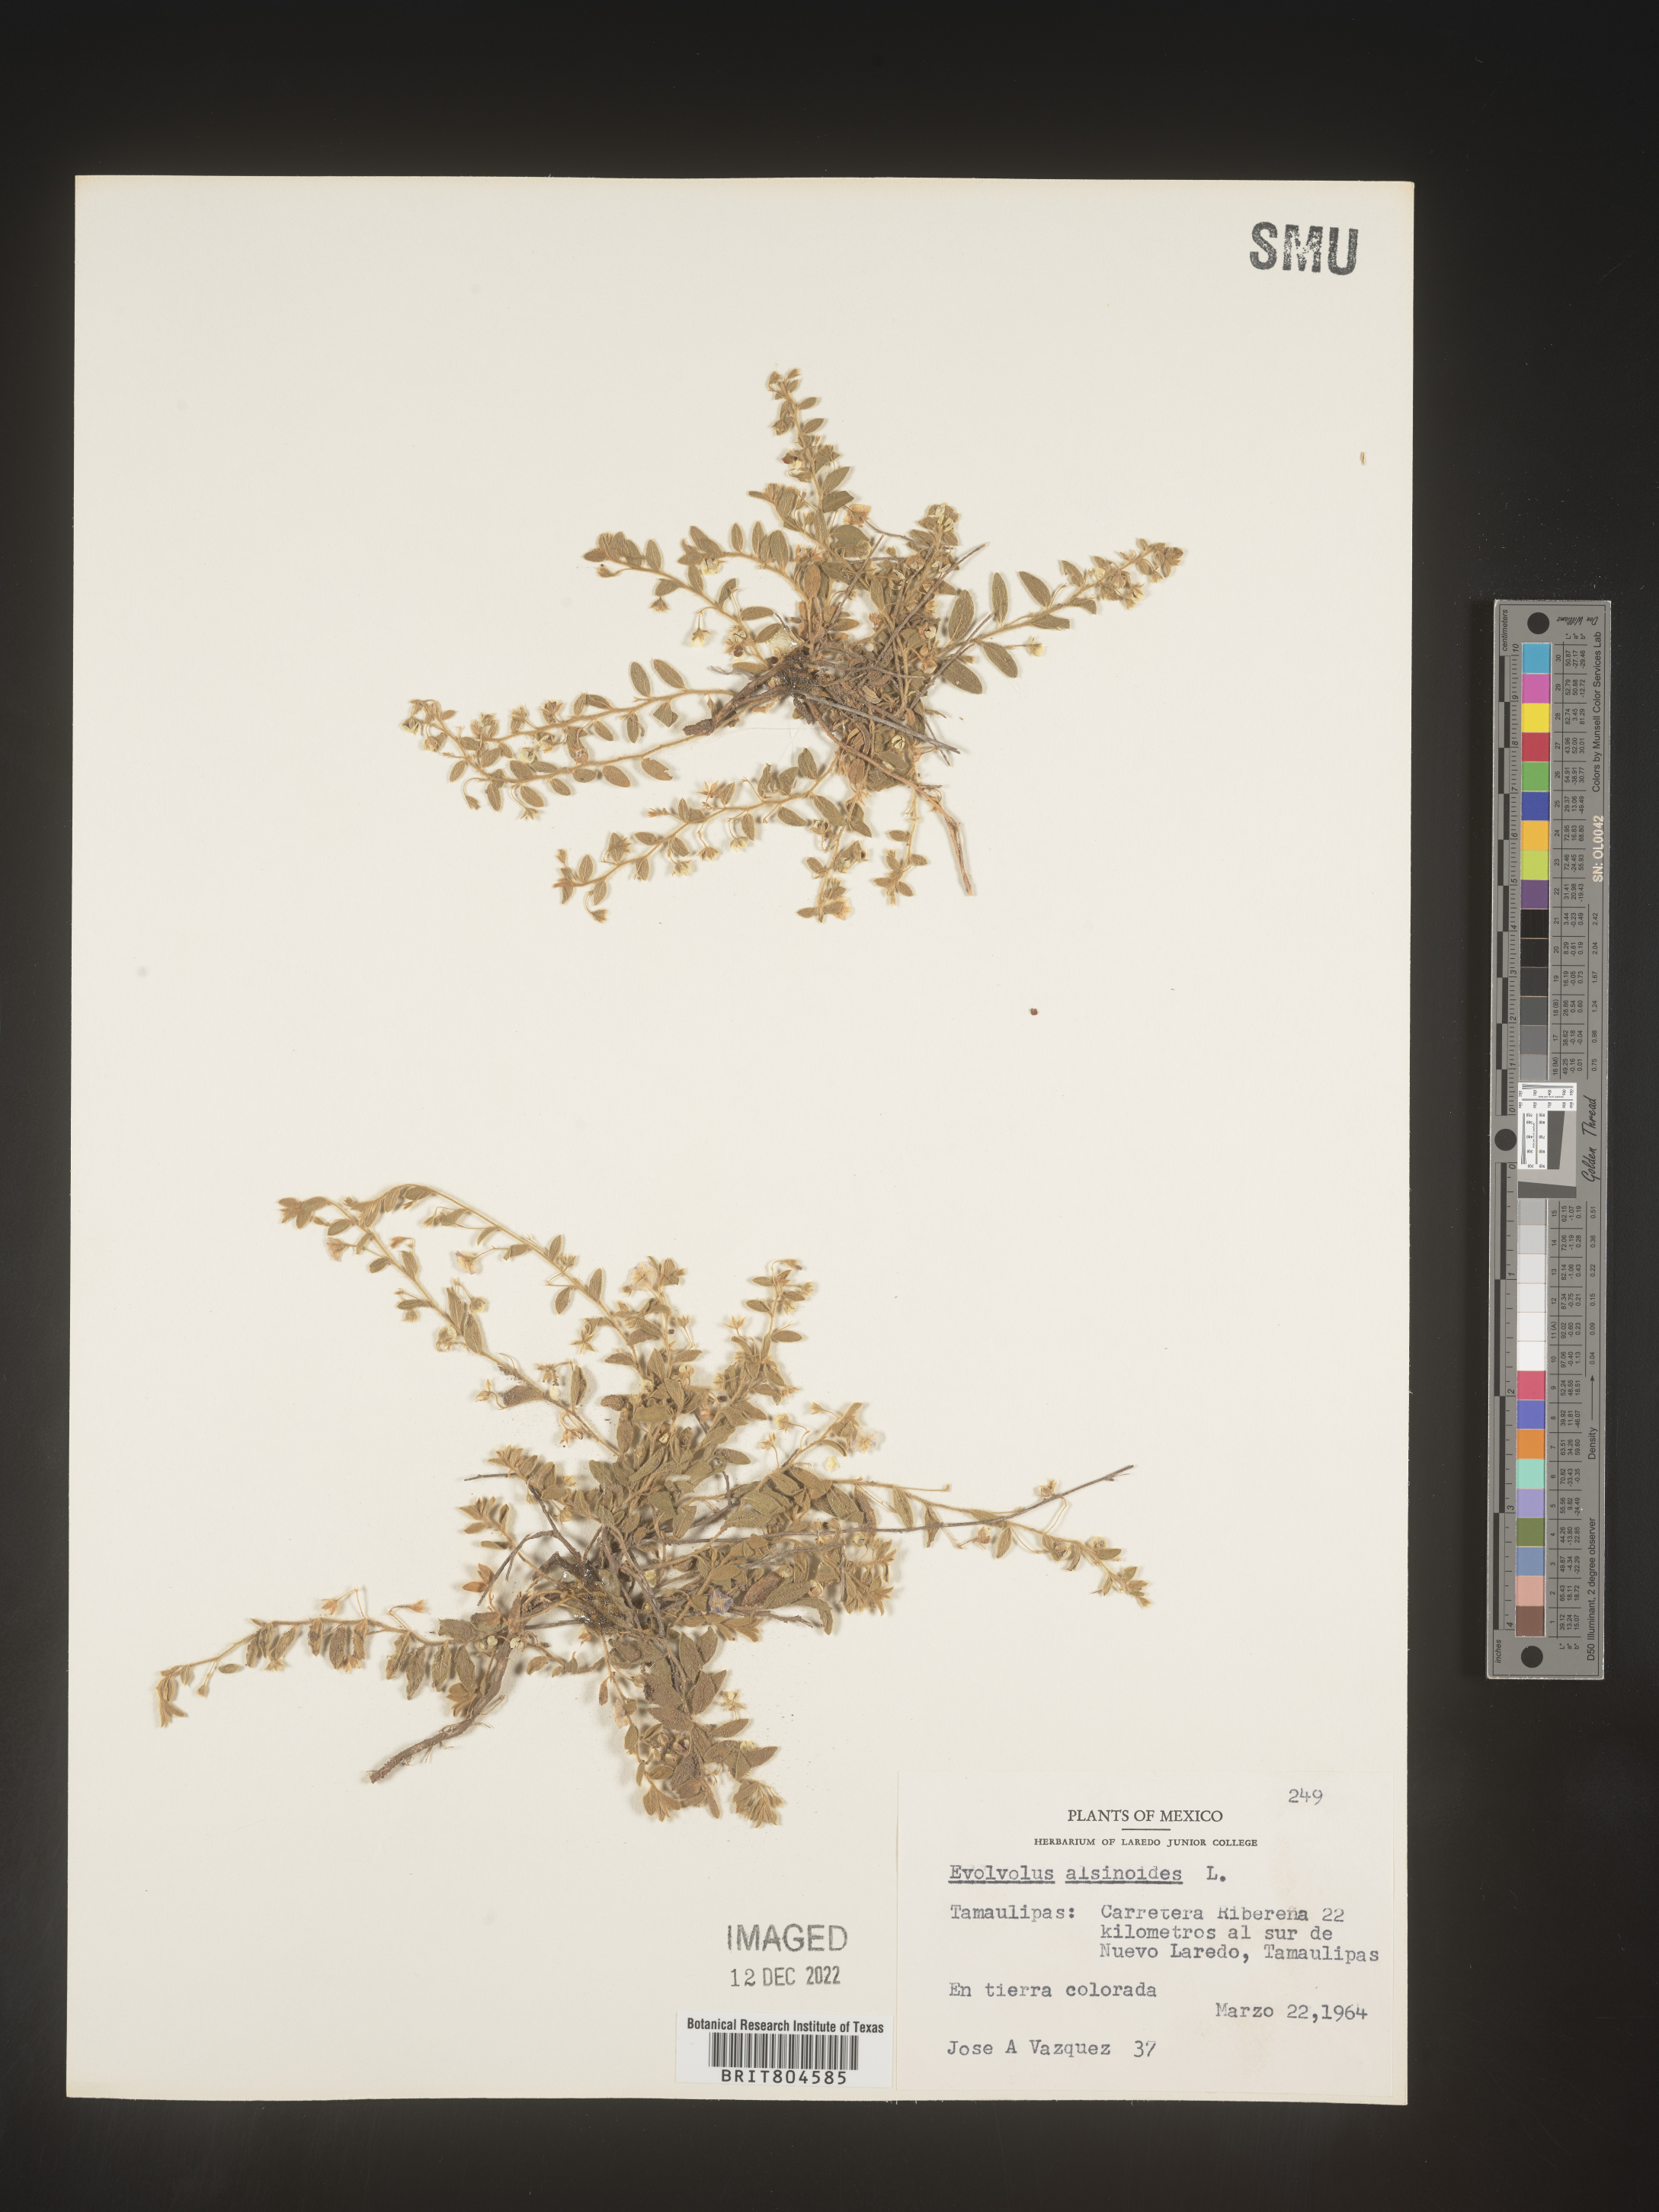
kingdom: Plantae
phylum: Tracheophyta
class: Magnoliopsida
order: Solanales
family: Convolvulaceae
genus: Evolvulus
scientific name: Evolvulus
